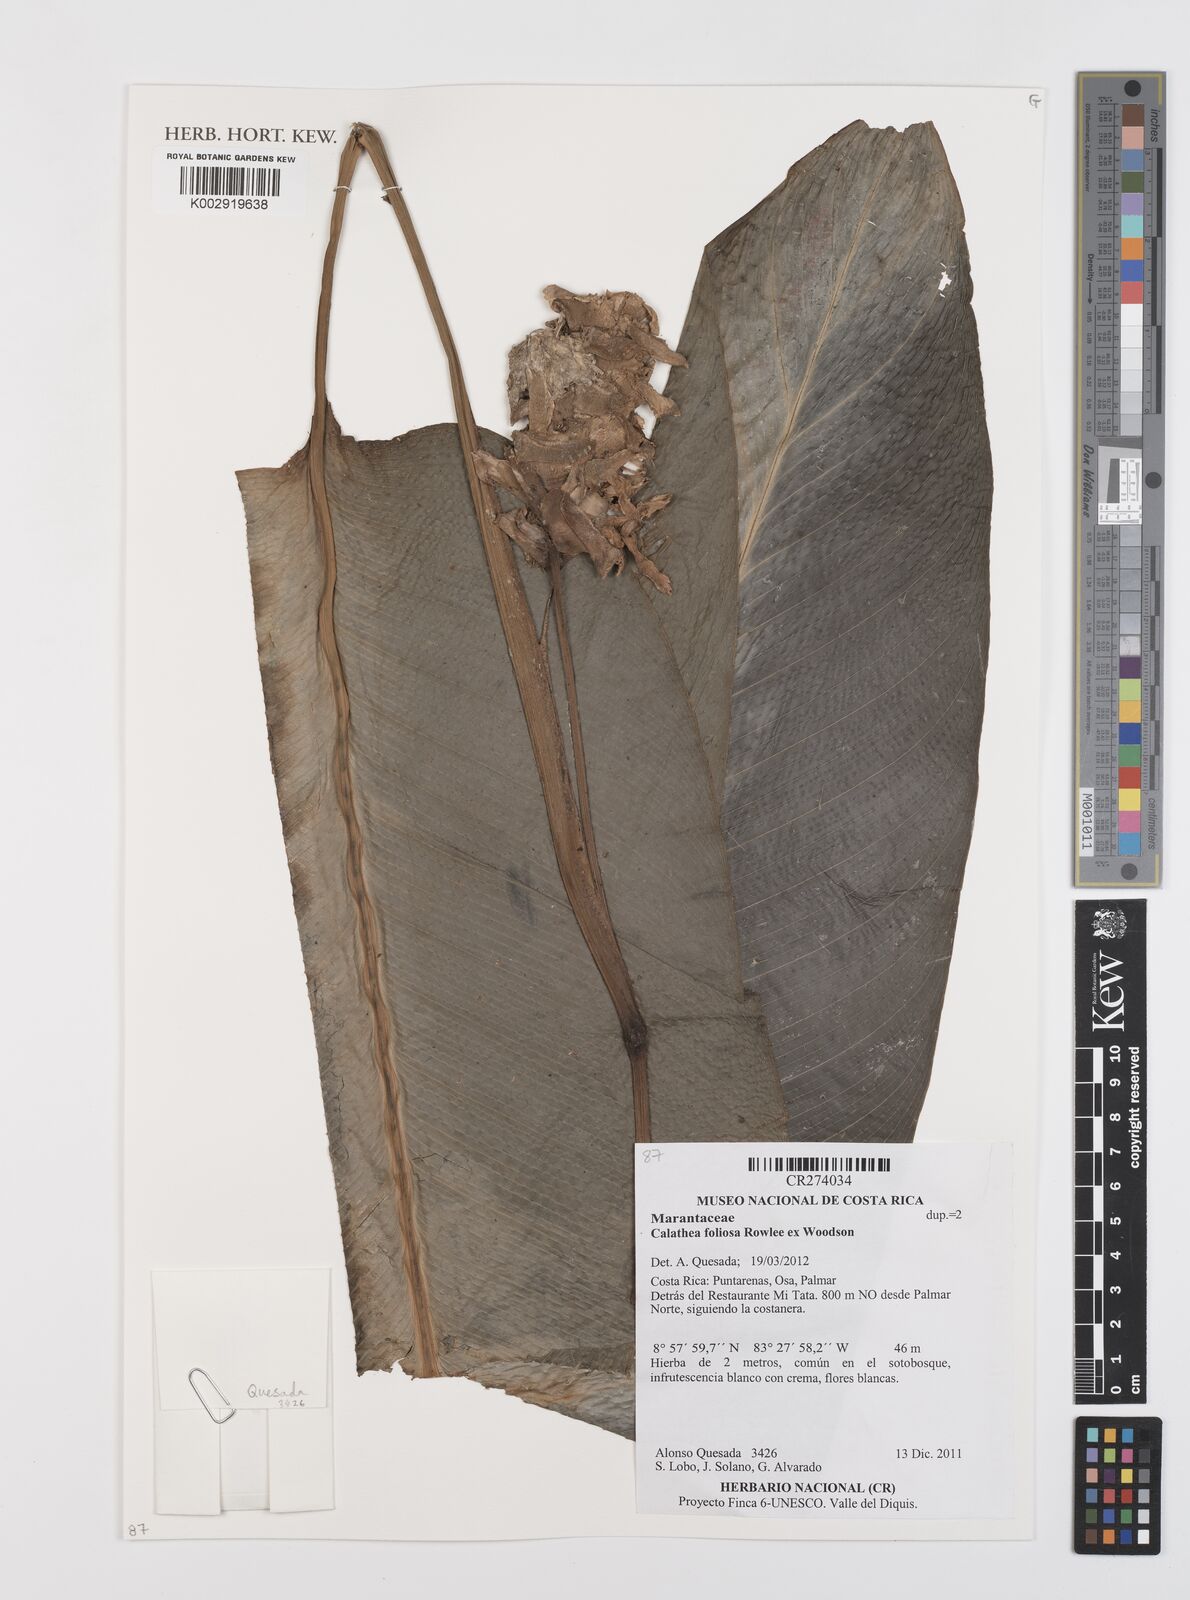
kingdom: Plantae
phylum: Tracheophyta
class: Liliopsida
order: Zingiberales
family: Marantaceae
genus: Goeppertia
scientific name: Goeppertia foliosa
